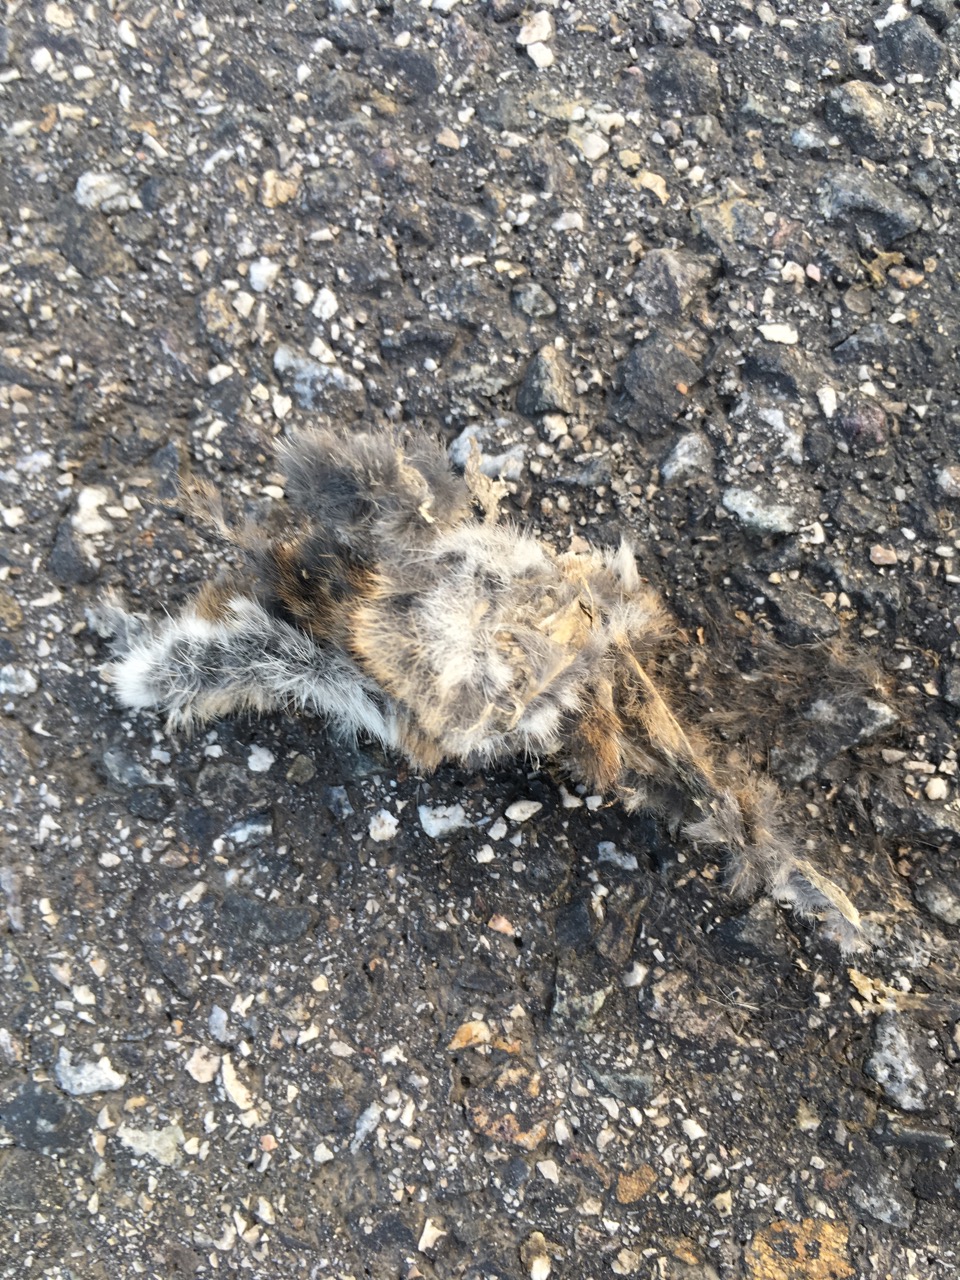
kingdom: Animalia
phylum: Chordata
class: Mammalia
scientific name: Mammalia
